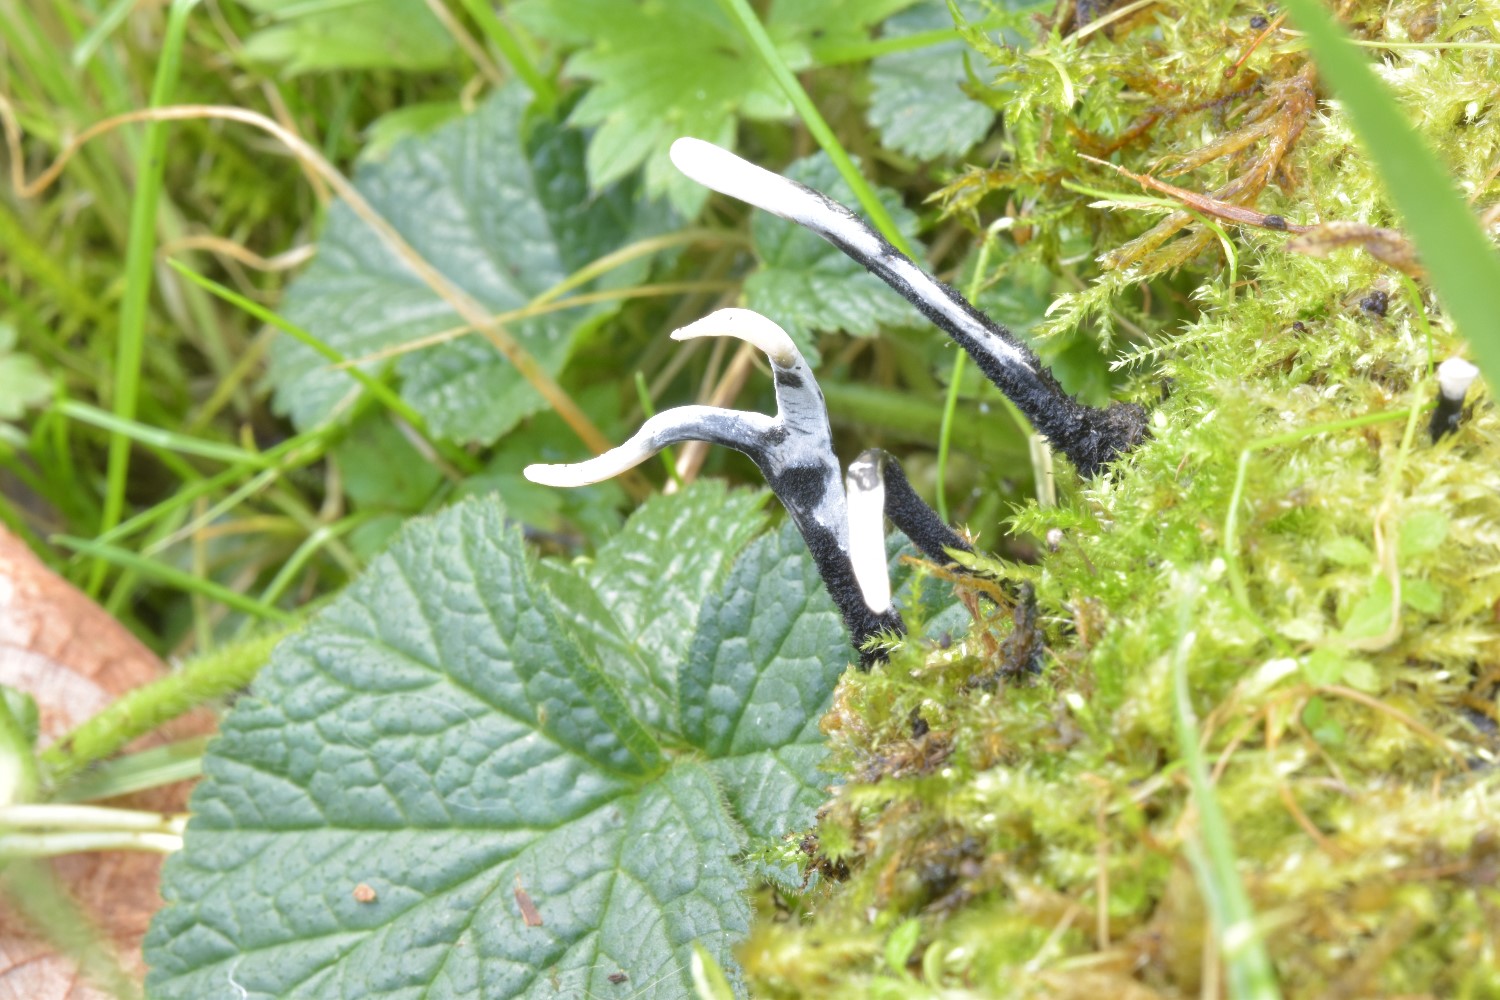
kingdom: Fungi
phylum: Ascomycota
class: Sordariomycetes
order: Xylariales
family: Xylariaceae
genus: Xylaria
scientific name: Xylaria hypoxylon
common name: grenet stødsvamp
